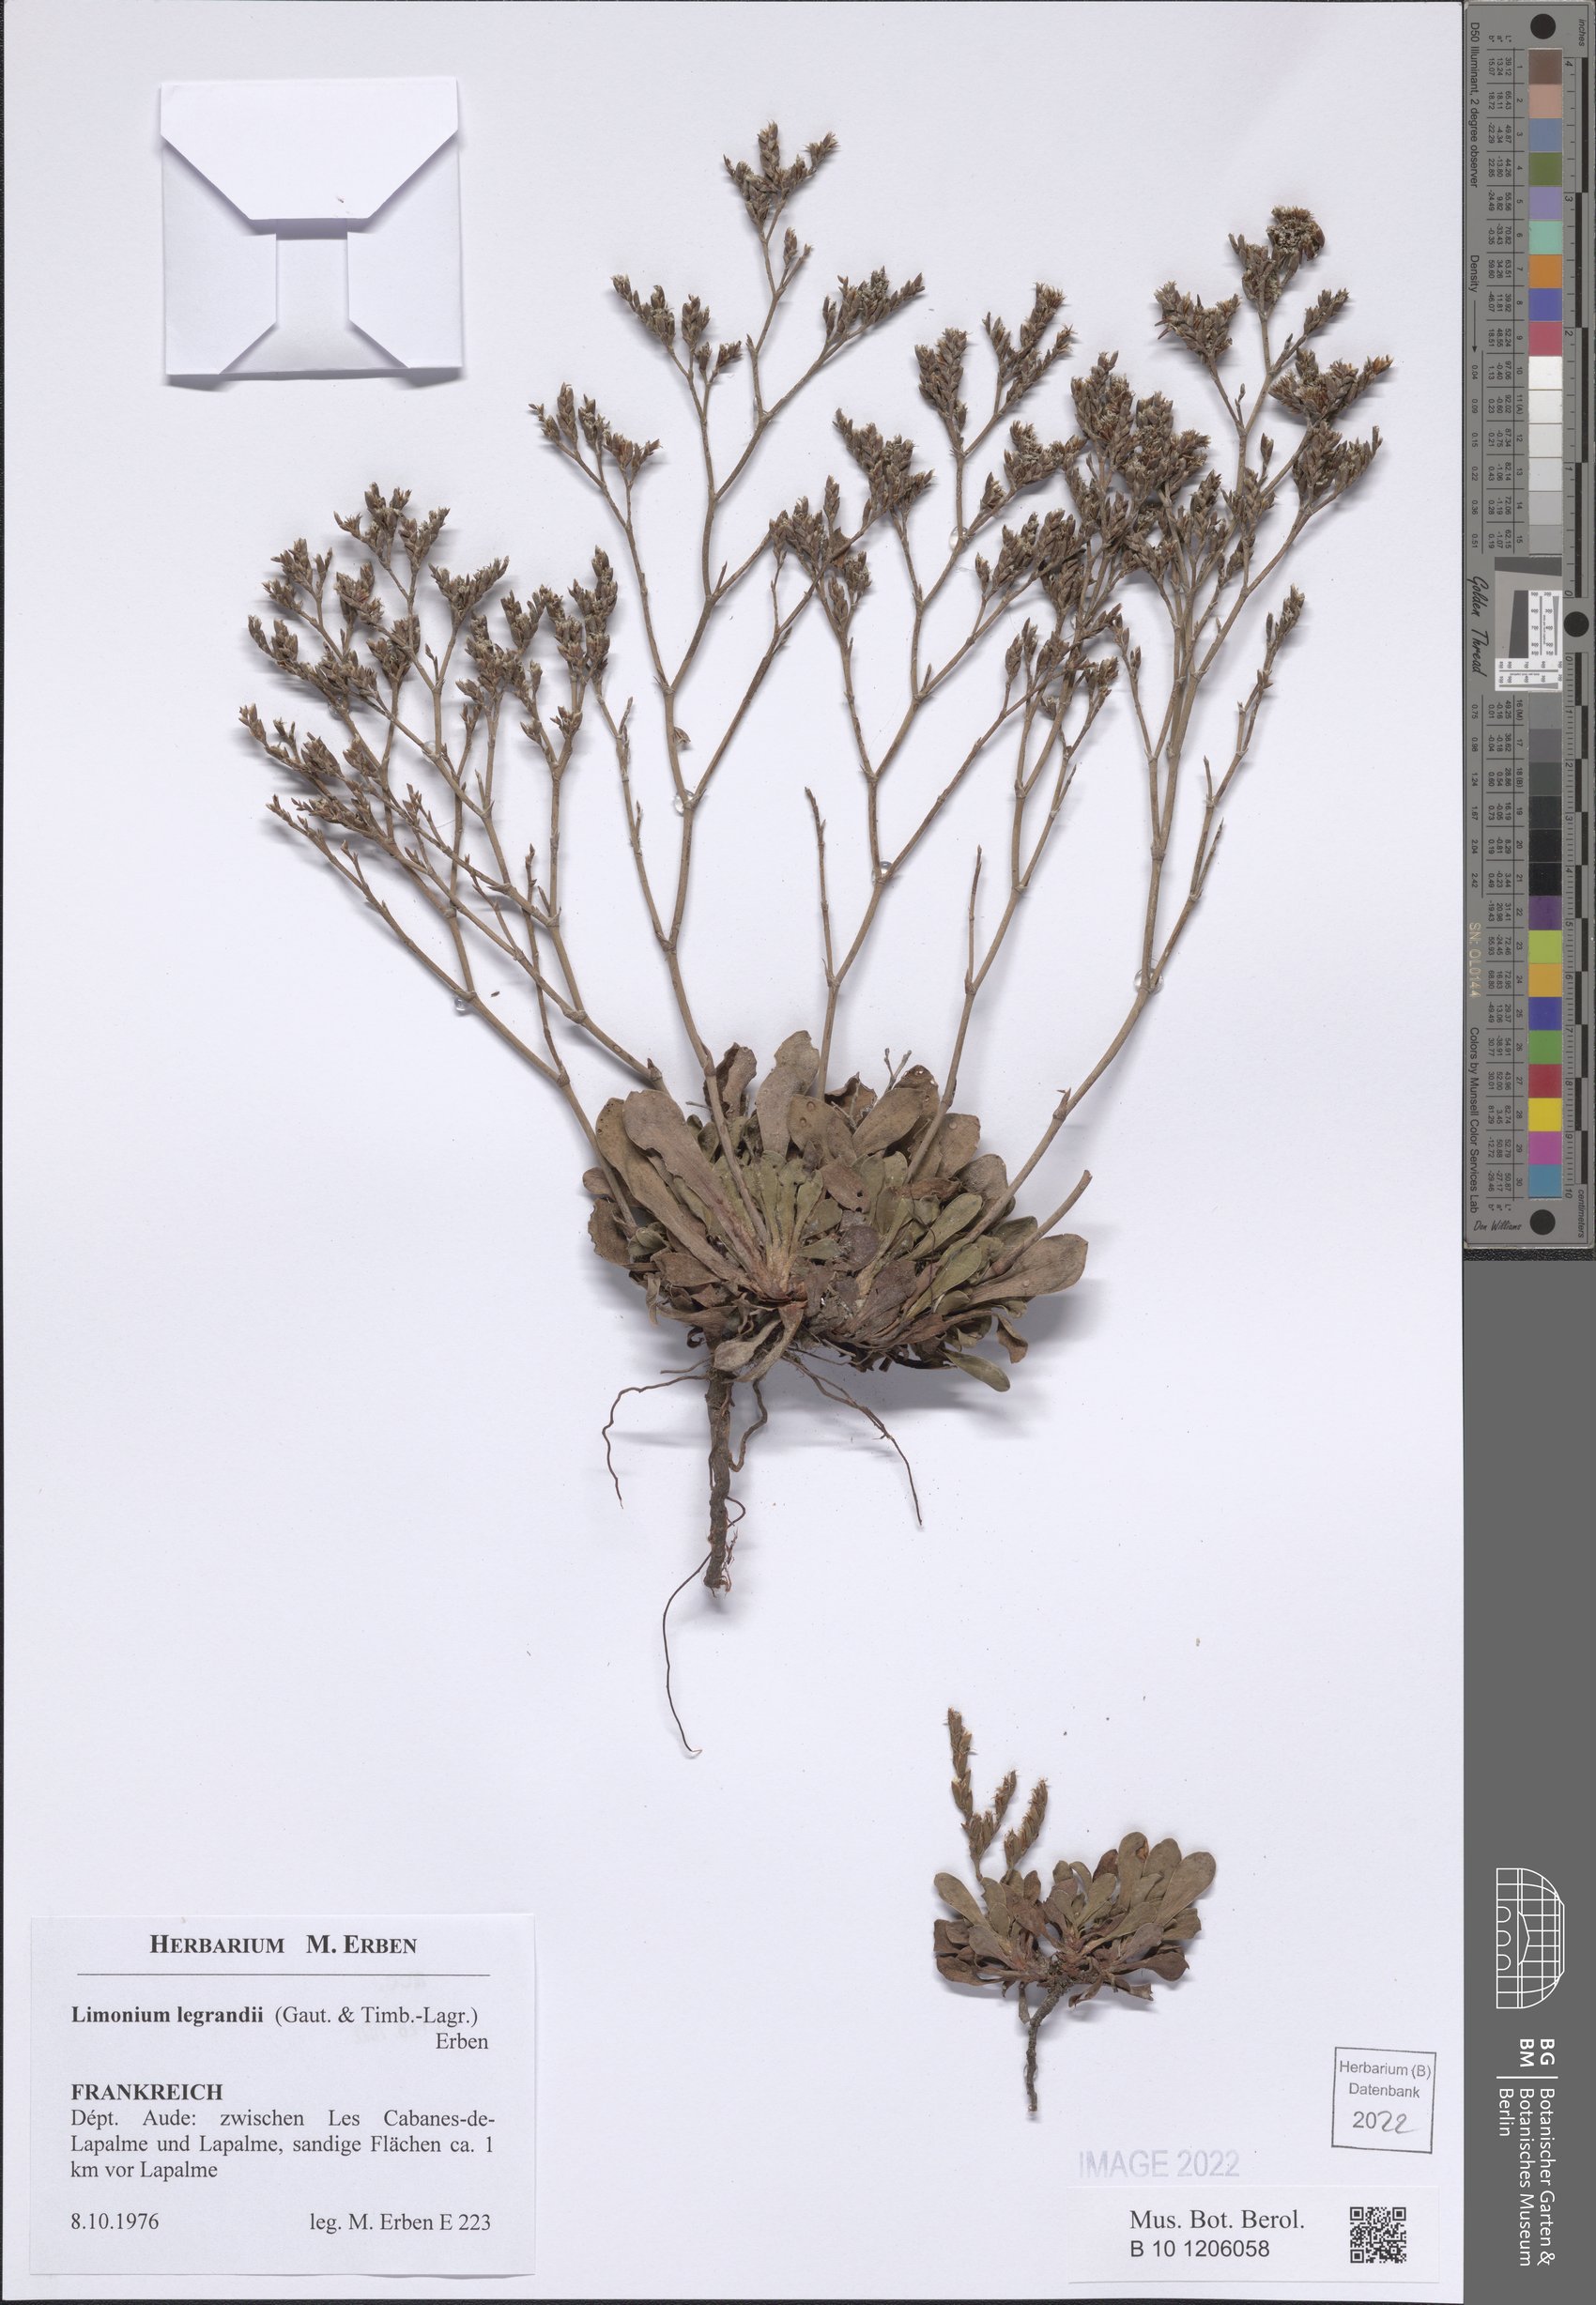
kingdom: Plantae
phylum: Tracheophyta
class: Magnoliopsida
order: Caryophyllales
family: Plumbaginaceae
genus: Limonium
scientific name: Limonium legrandii
